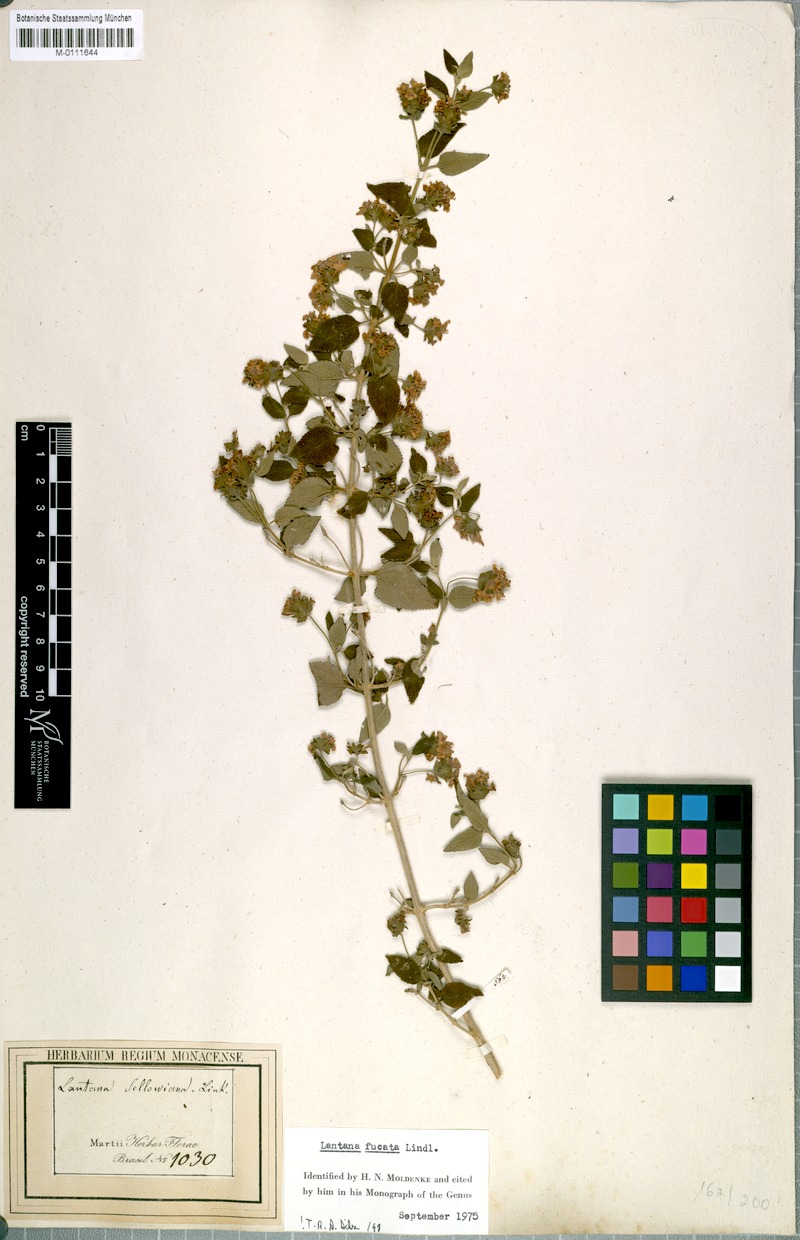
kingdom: Plantae
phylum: Tracheophyta
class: Magnoliopsida
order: Lamiales
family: Verbenaceae
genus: Lantana
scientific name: Lantana fucata
